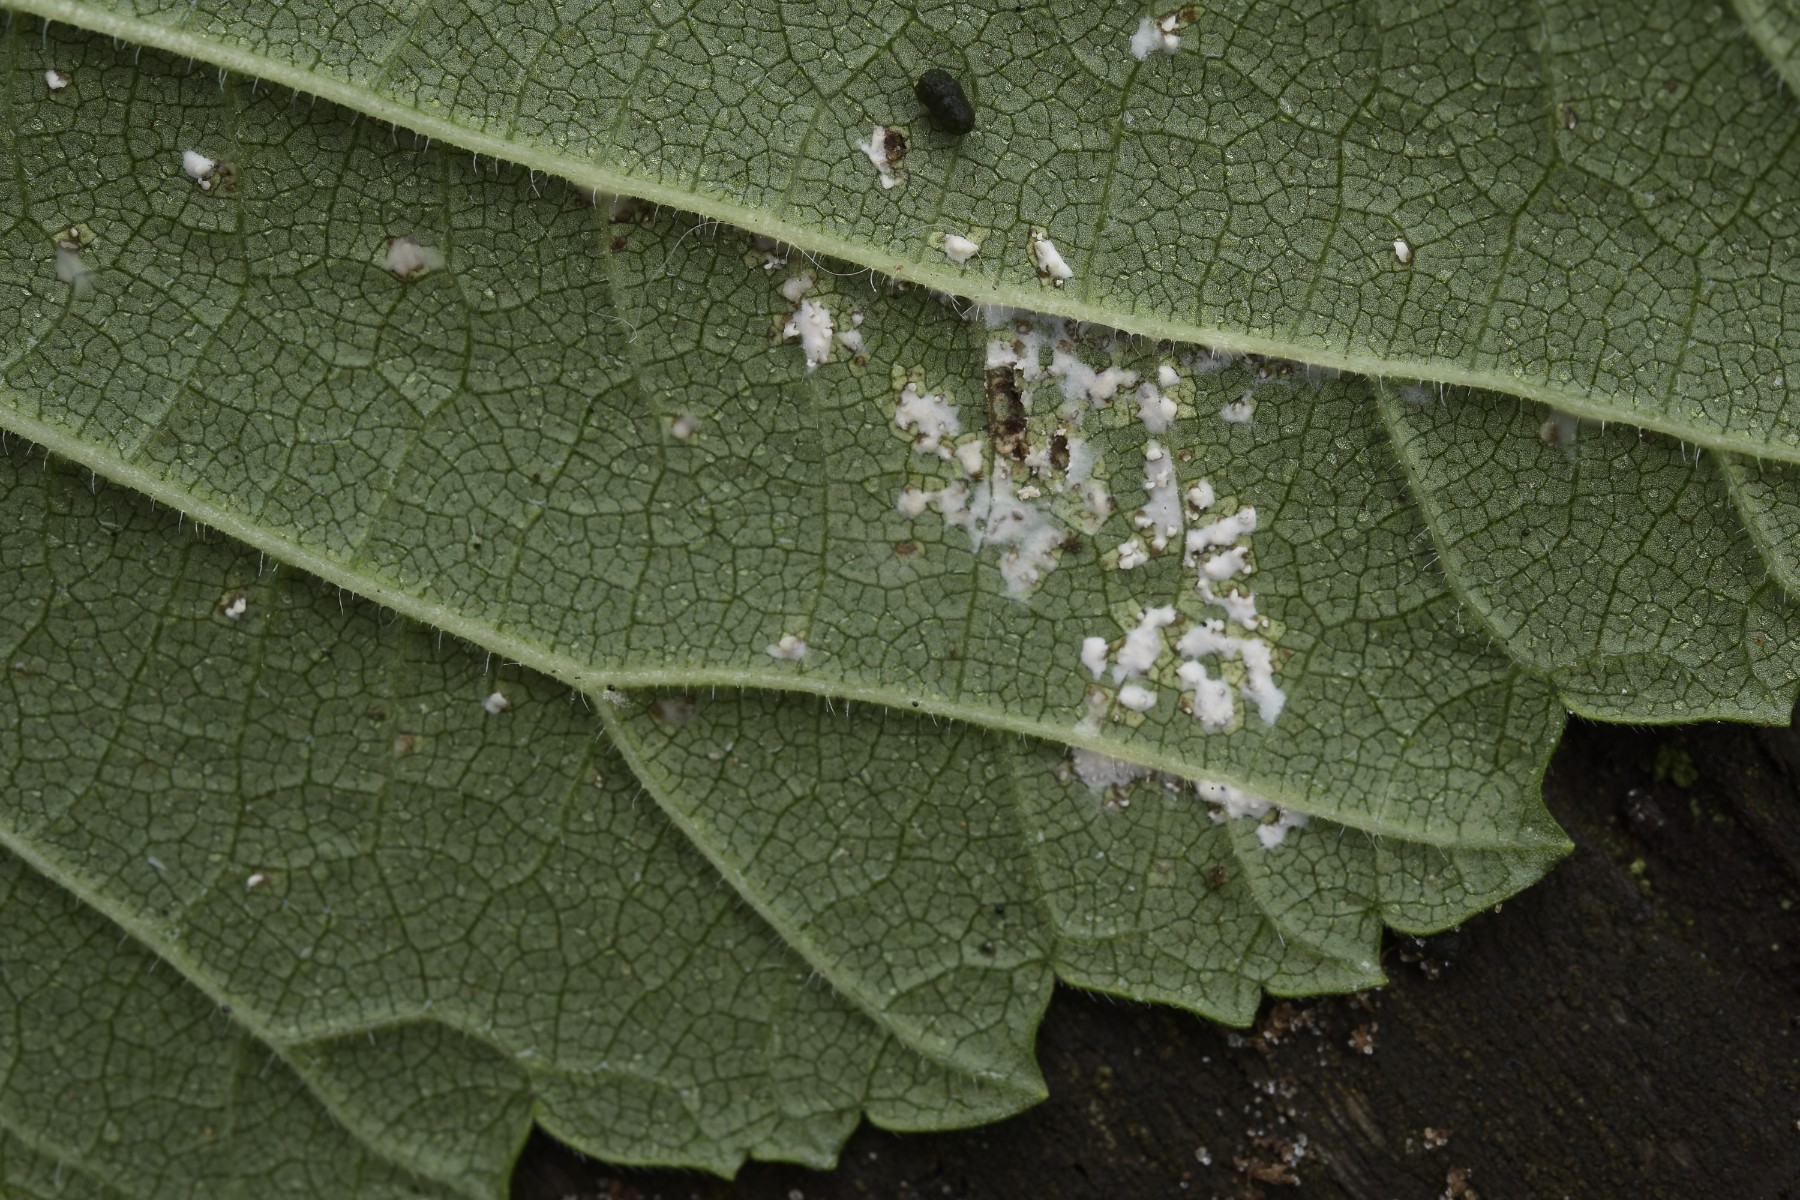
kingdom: Fungi
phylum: Ascomycota
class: Dothideomycetes
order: Mycosphaerellales
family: Mycosphaerellaceae
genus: Mycosphaerella
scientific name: Mycosphaerella ulmi
